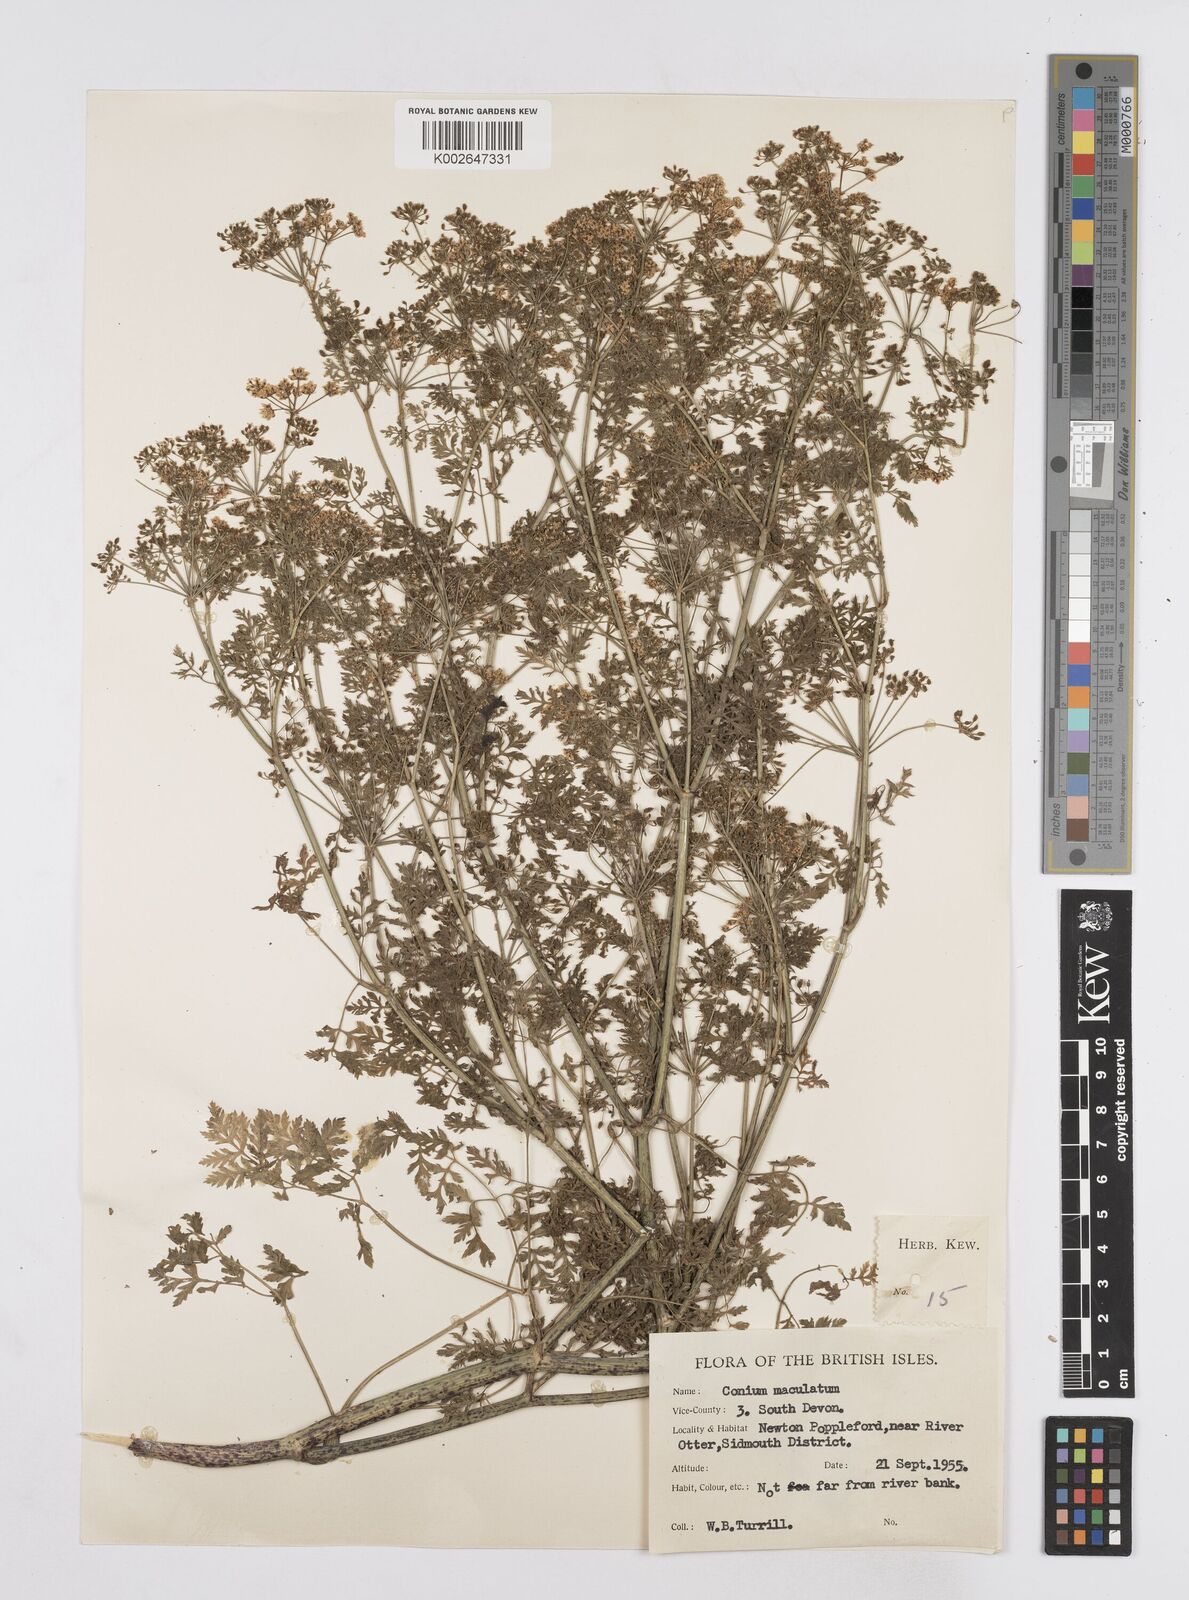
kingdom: Plantae
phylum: Tracheophyta
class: Magnoliopsida
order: Apiales
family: Apiaceae
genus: Conium
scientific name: Conium maculatum
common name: Hemlock
